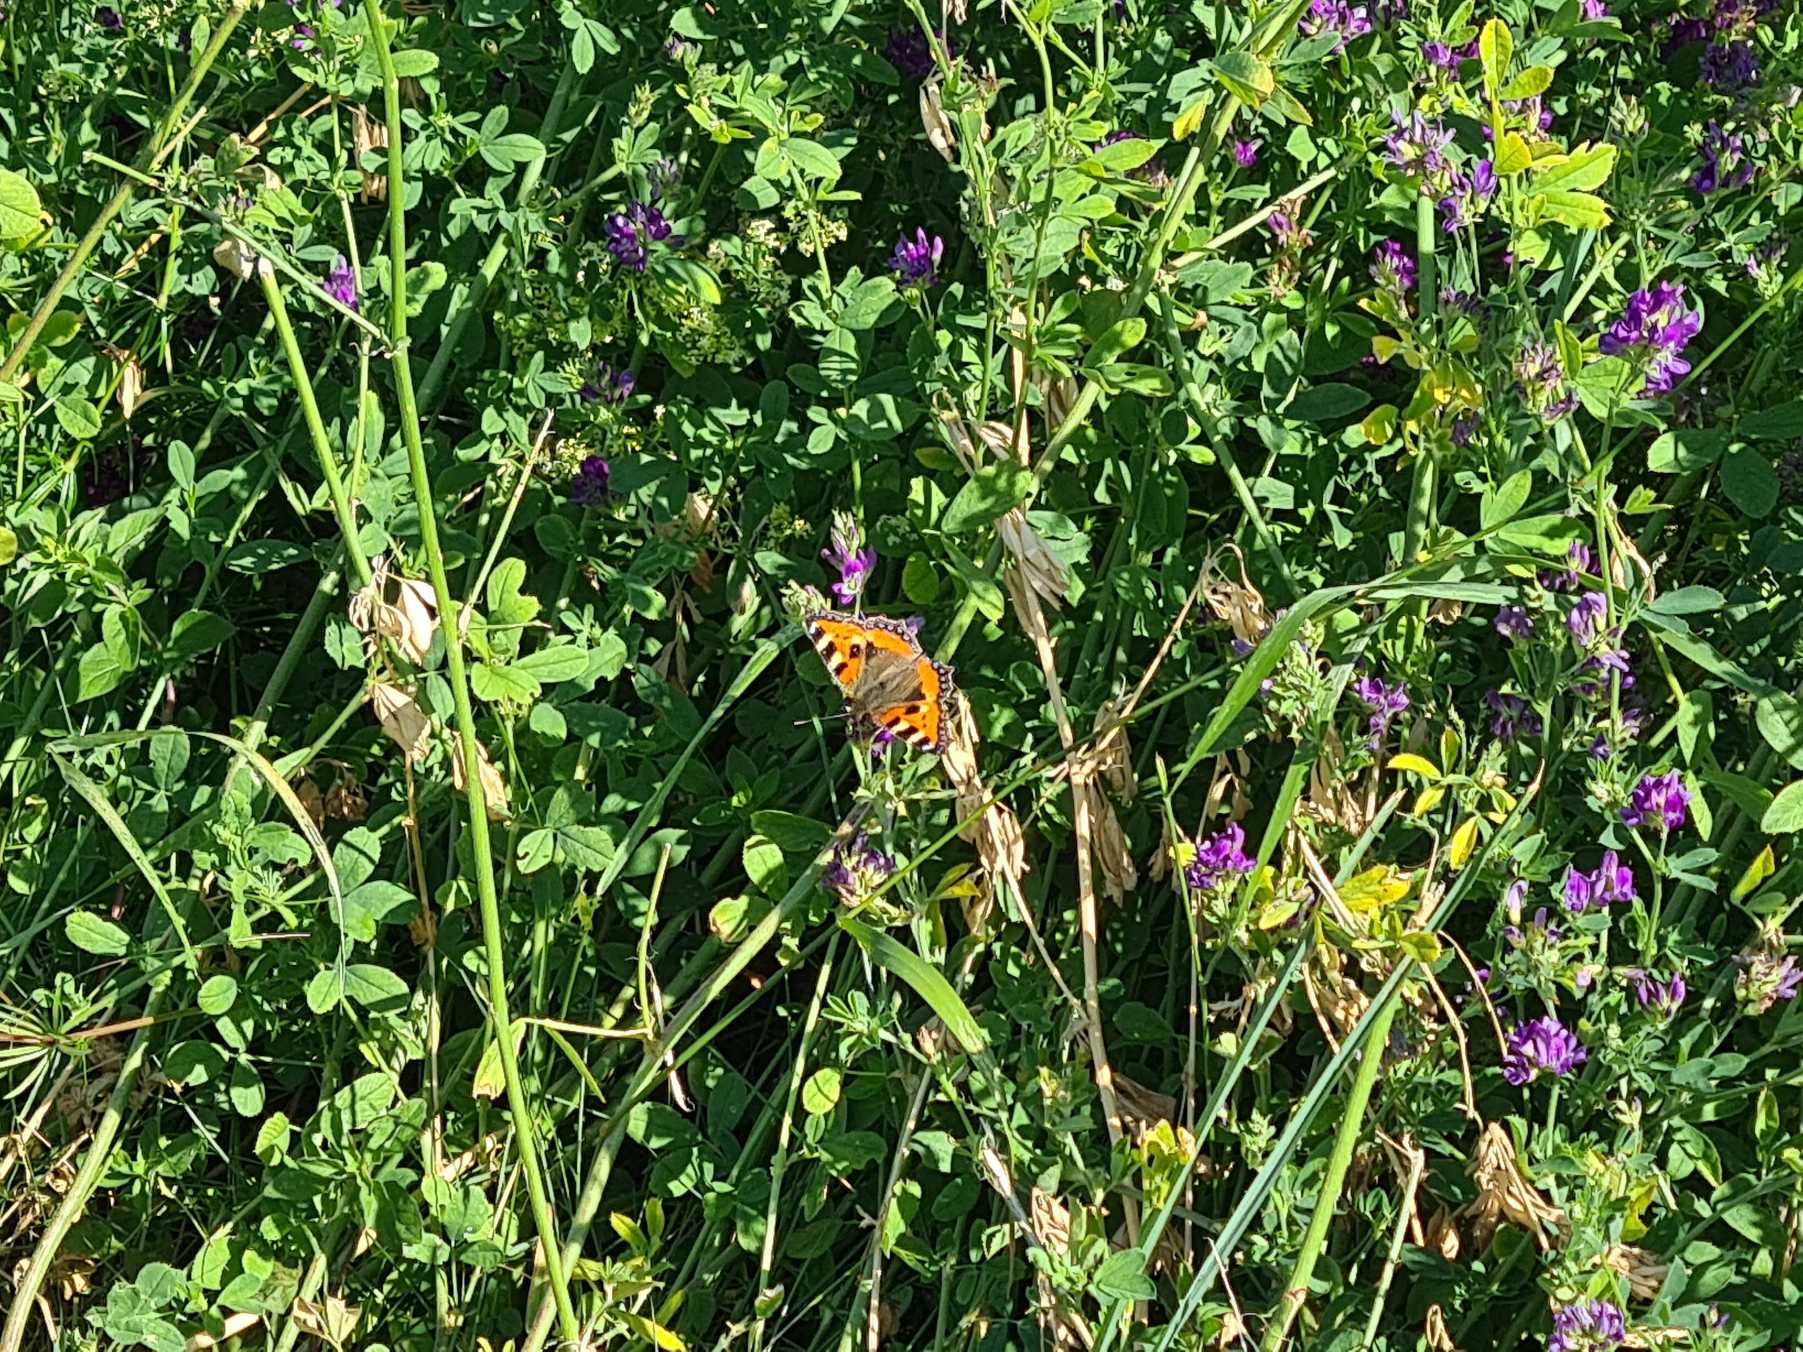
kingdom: Animalia
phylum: Arthropoda
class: Insecta
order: Lepidoptera
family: Nymphalidae
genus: Aglais
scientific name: Aglais urticae
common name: Nældens takvinge
